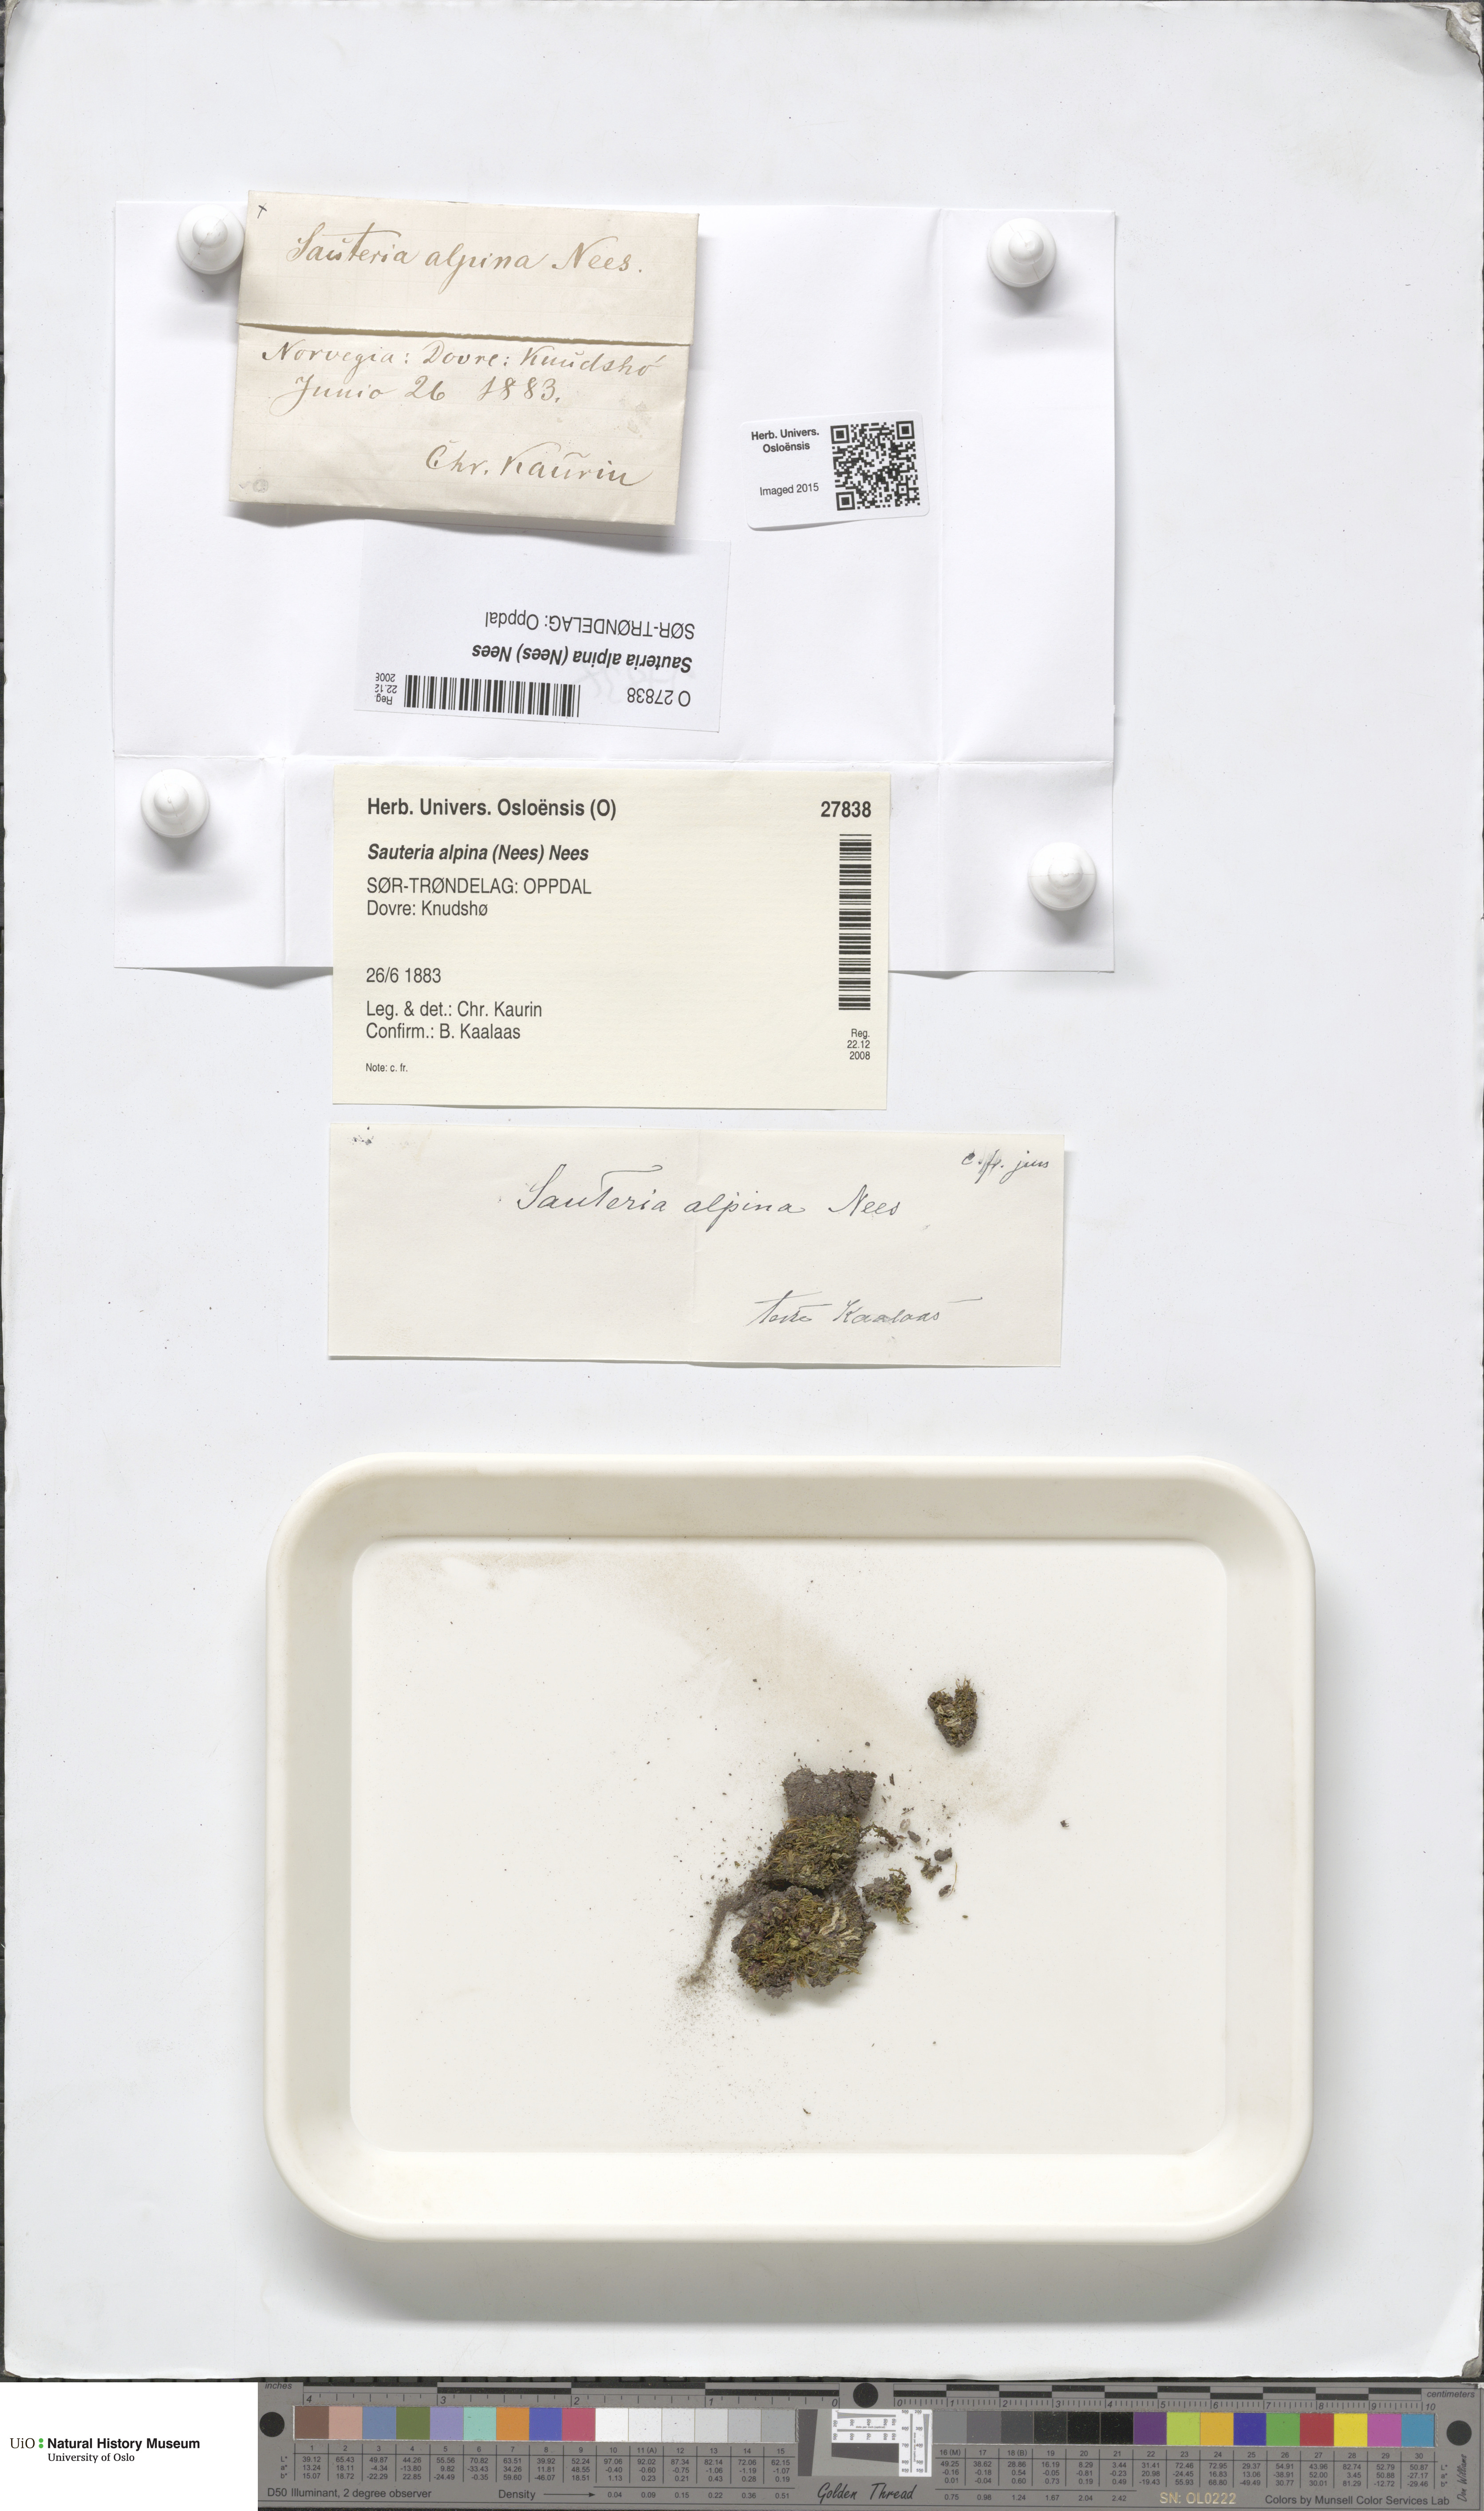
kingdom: Plantae
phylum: Marchantiophyta
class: Marchantiopsida
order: Marchantiales
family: Cleveaceae
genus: Sauteria
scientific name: Sauteria alpina
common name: Snow lungwort
